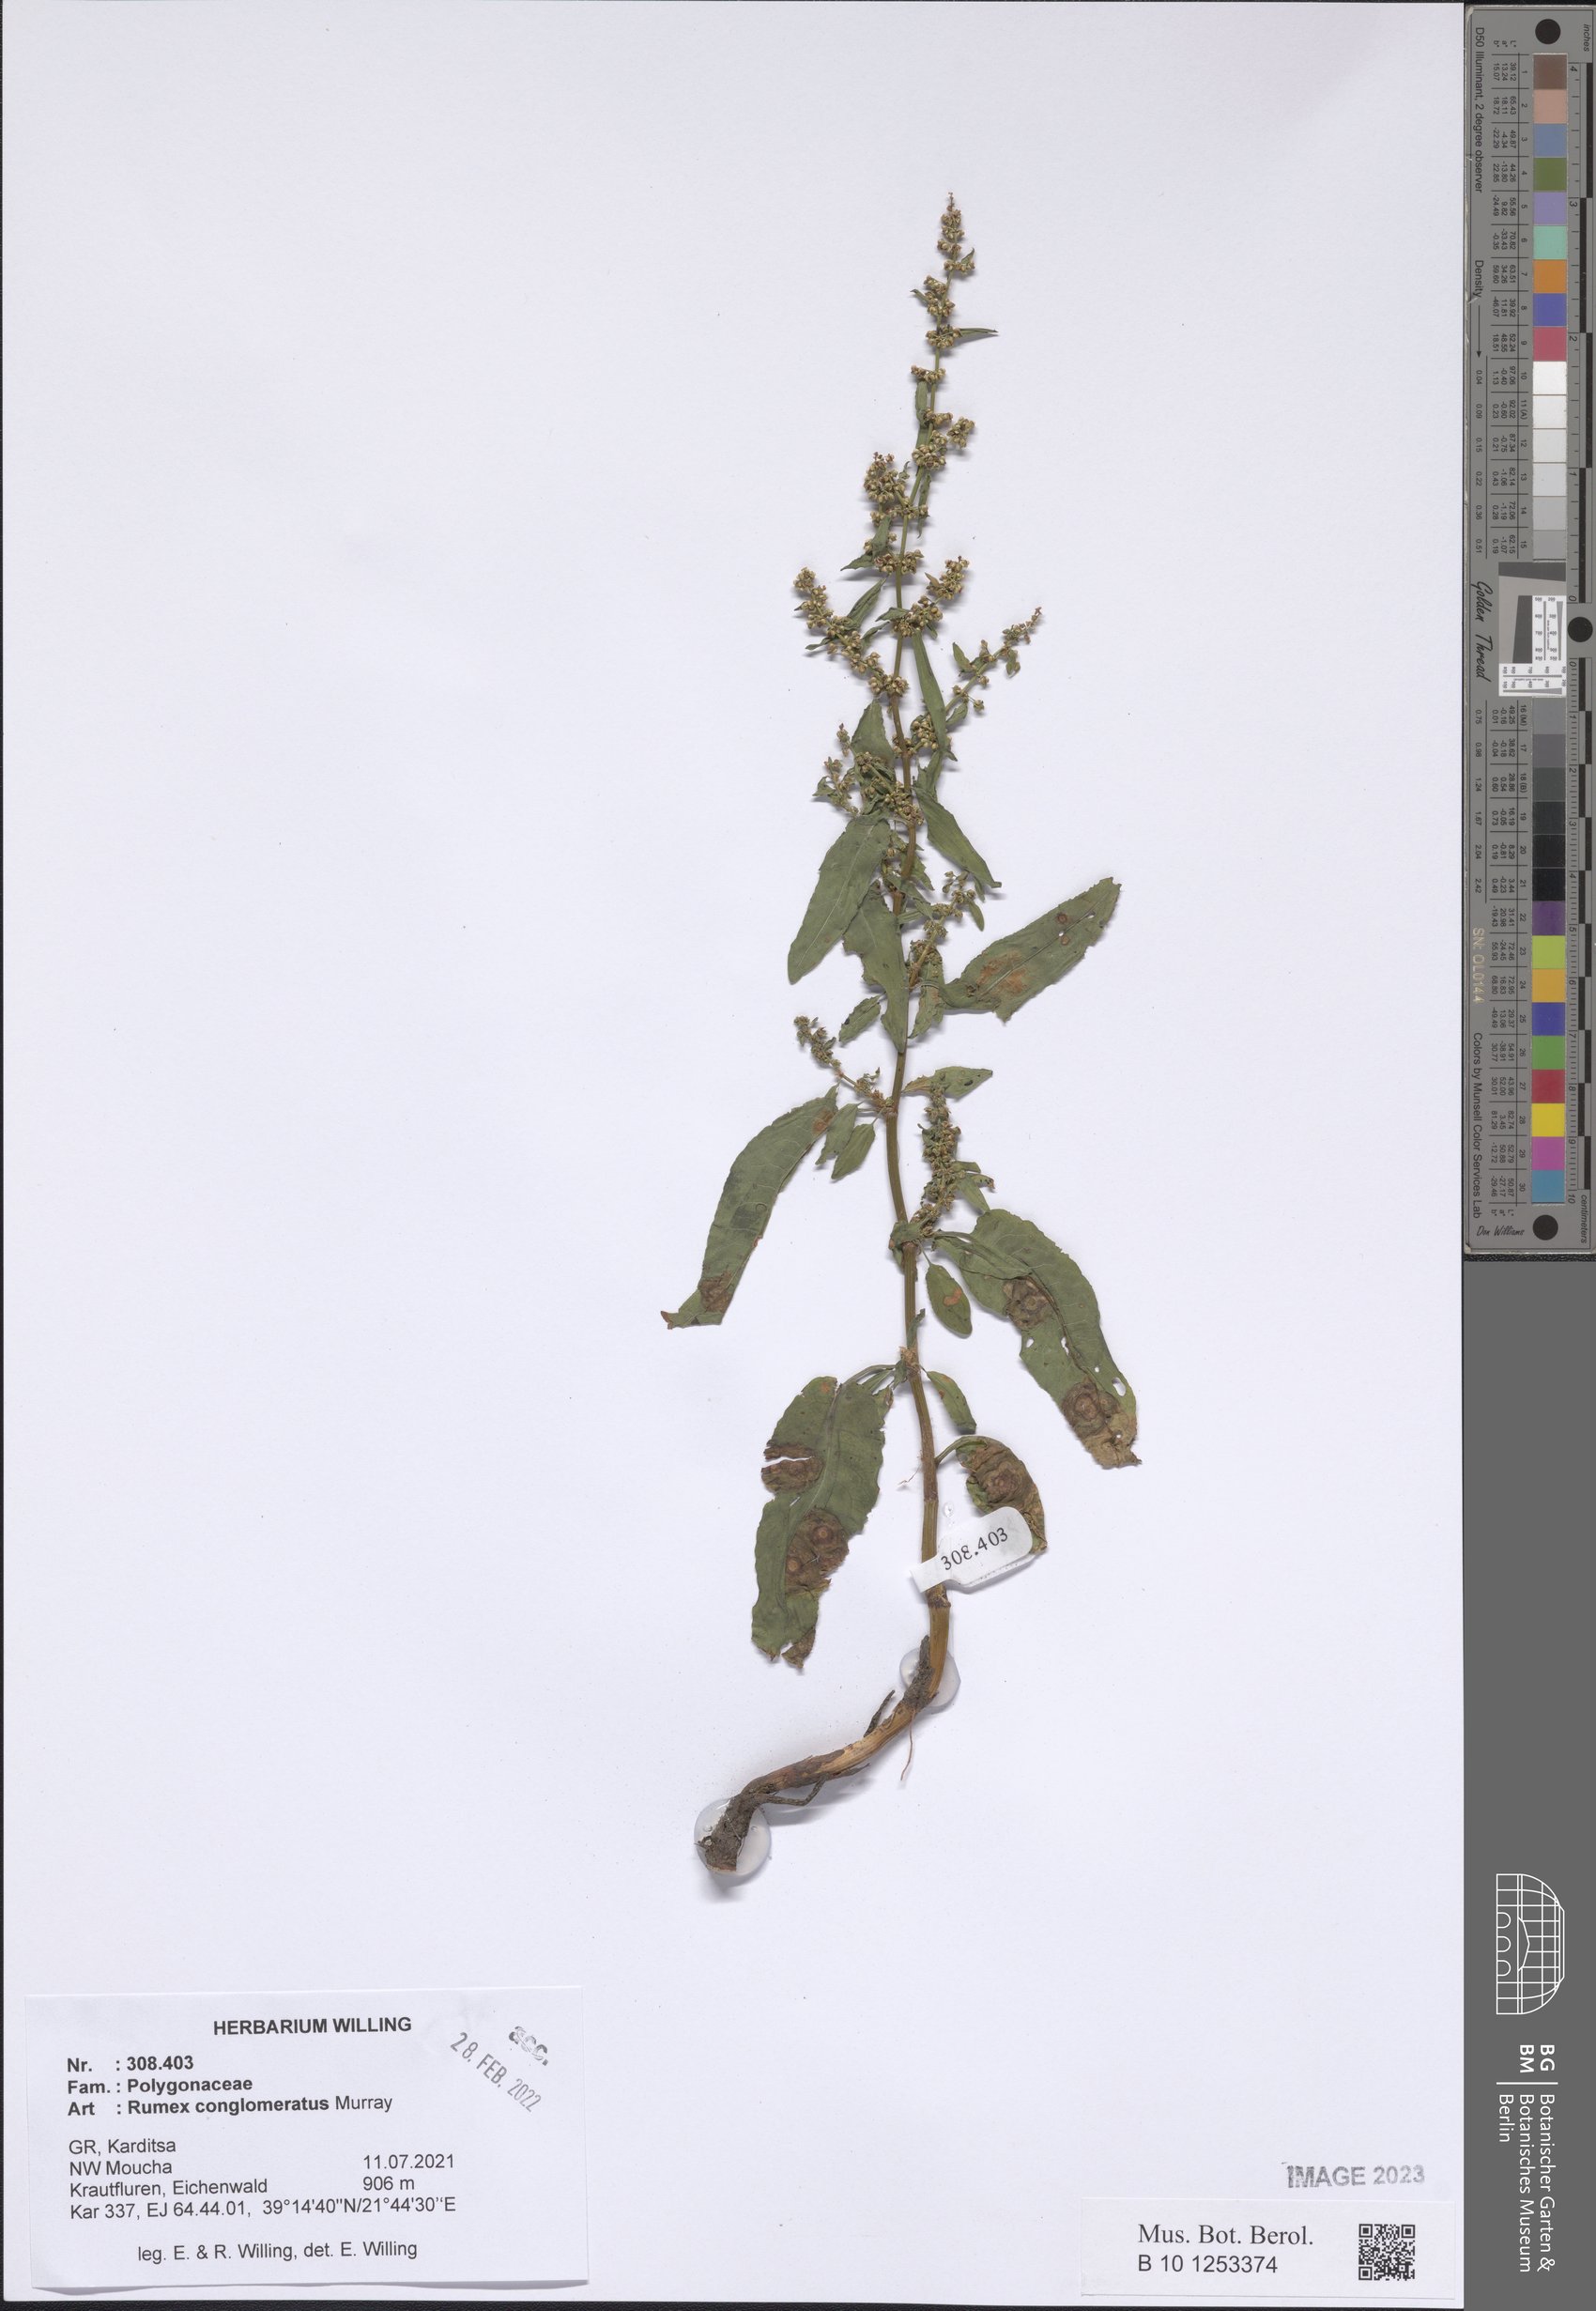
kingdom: Plantae
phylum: Tracheophyta
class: Magnoliopsida
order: Caryophyllales
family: Polygonaceae
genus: Rumex
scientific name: Rumex conglomeratus
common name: Clustered dock
